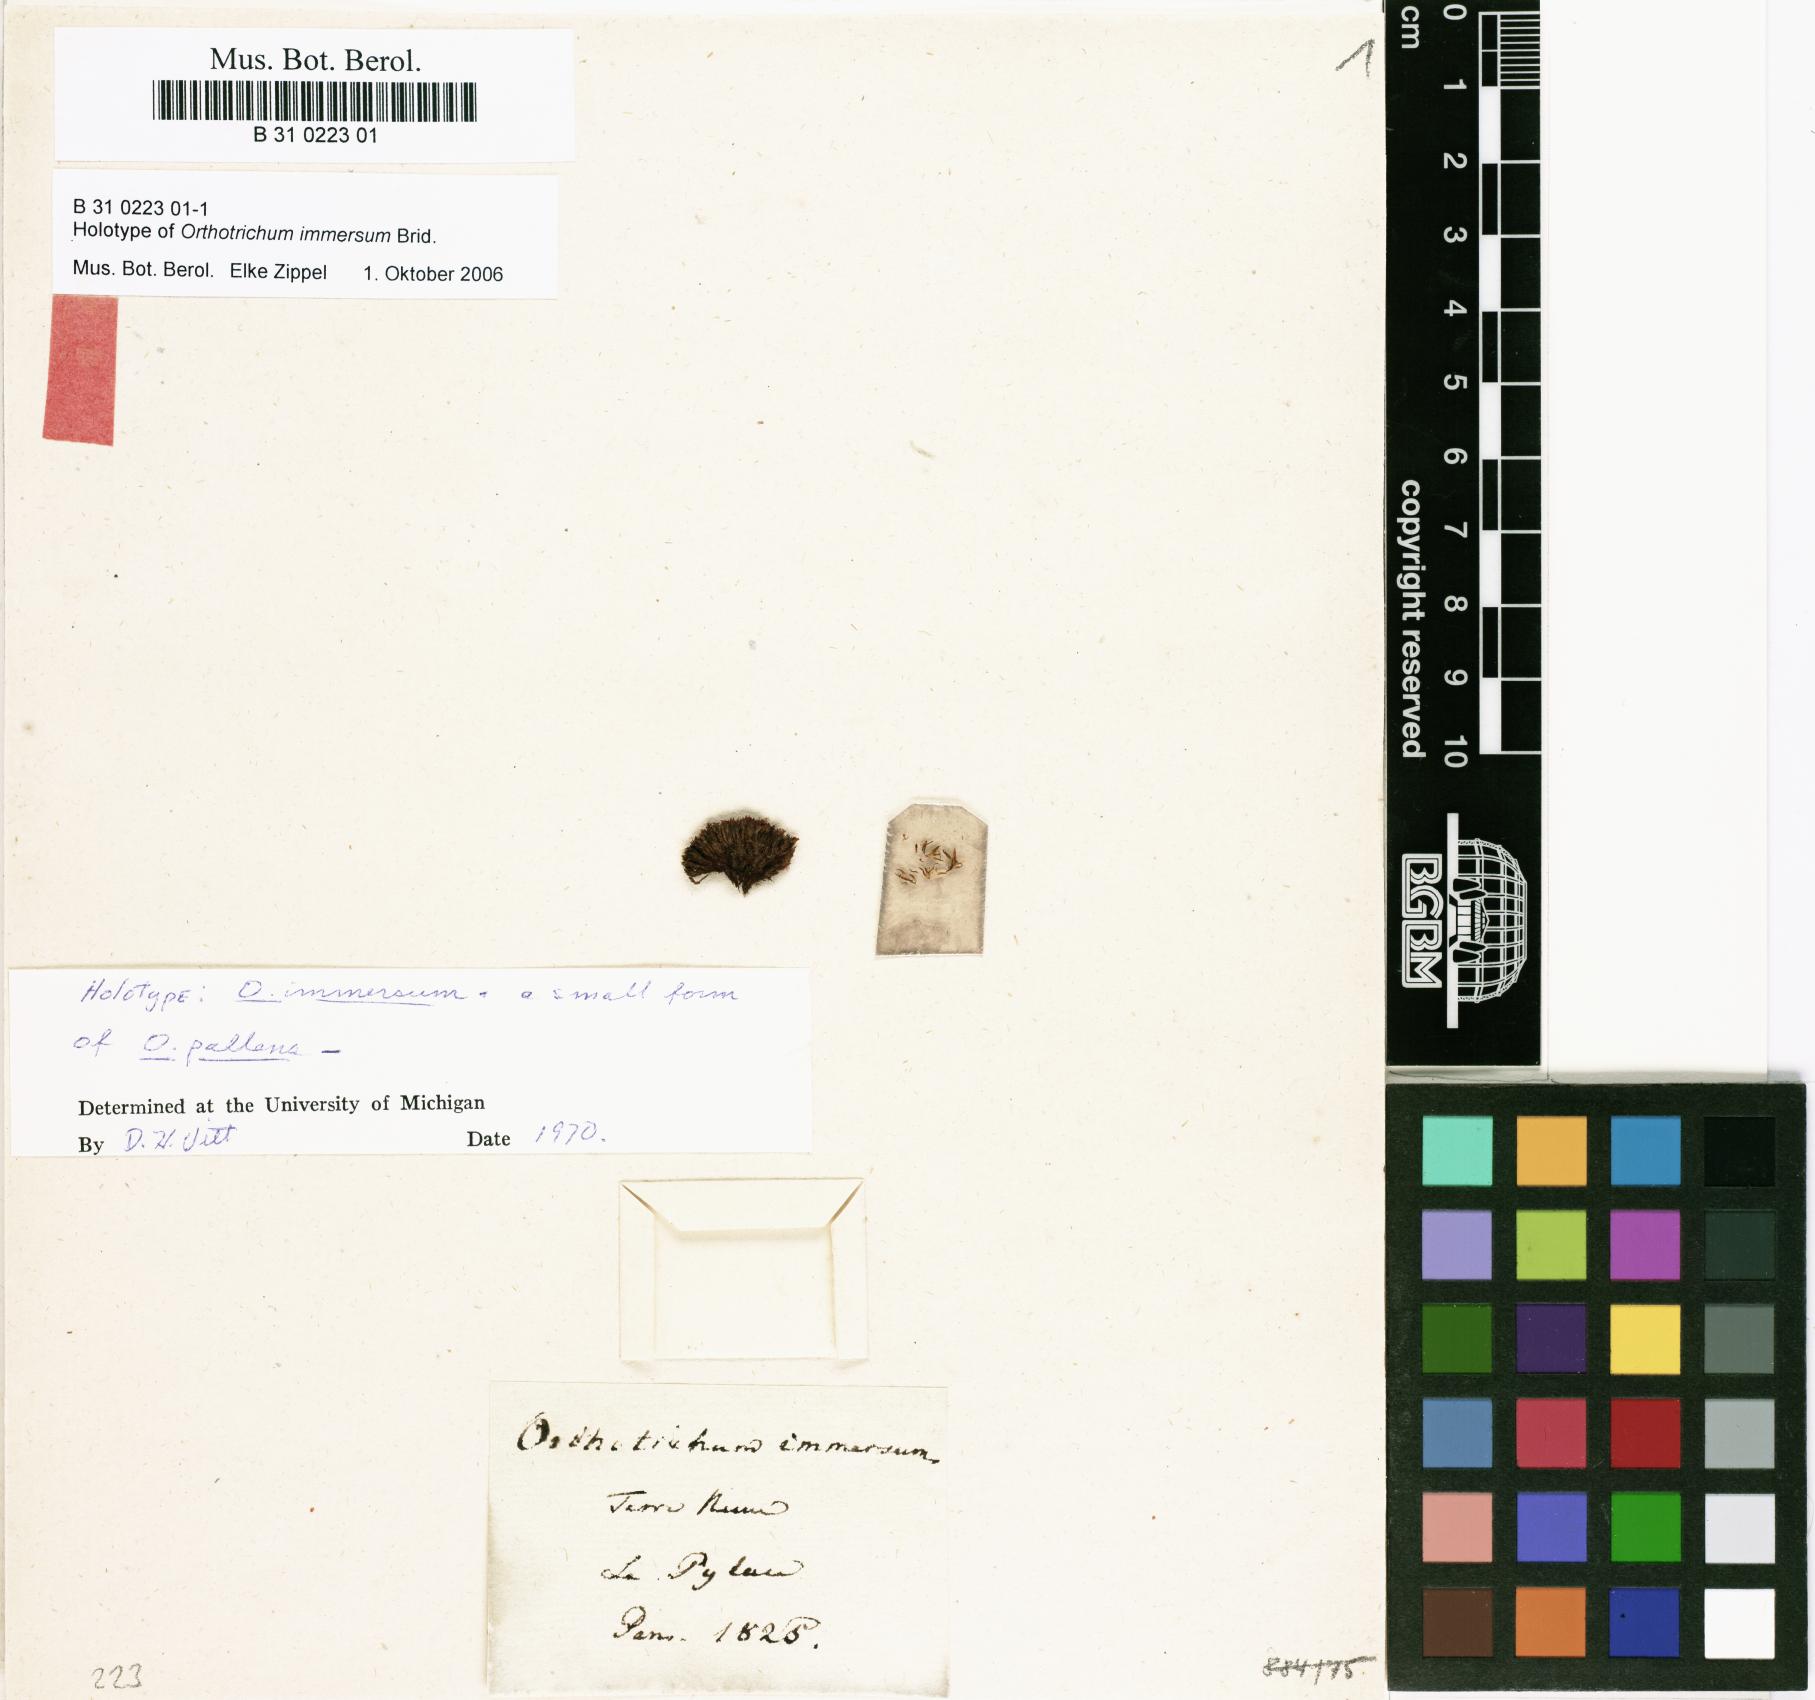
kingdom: Plantae
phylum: Bryophyta
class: Bryopsida
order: Orthotrichales
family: Orthotrichaceae
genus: Orthotrichum
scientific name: Orthotrichum pallens
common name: Pale bristle moss
